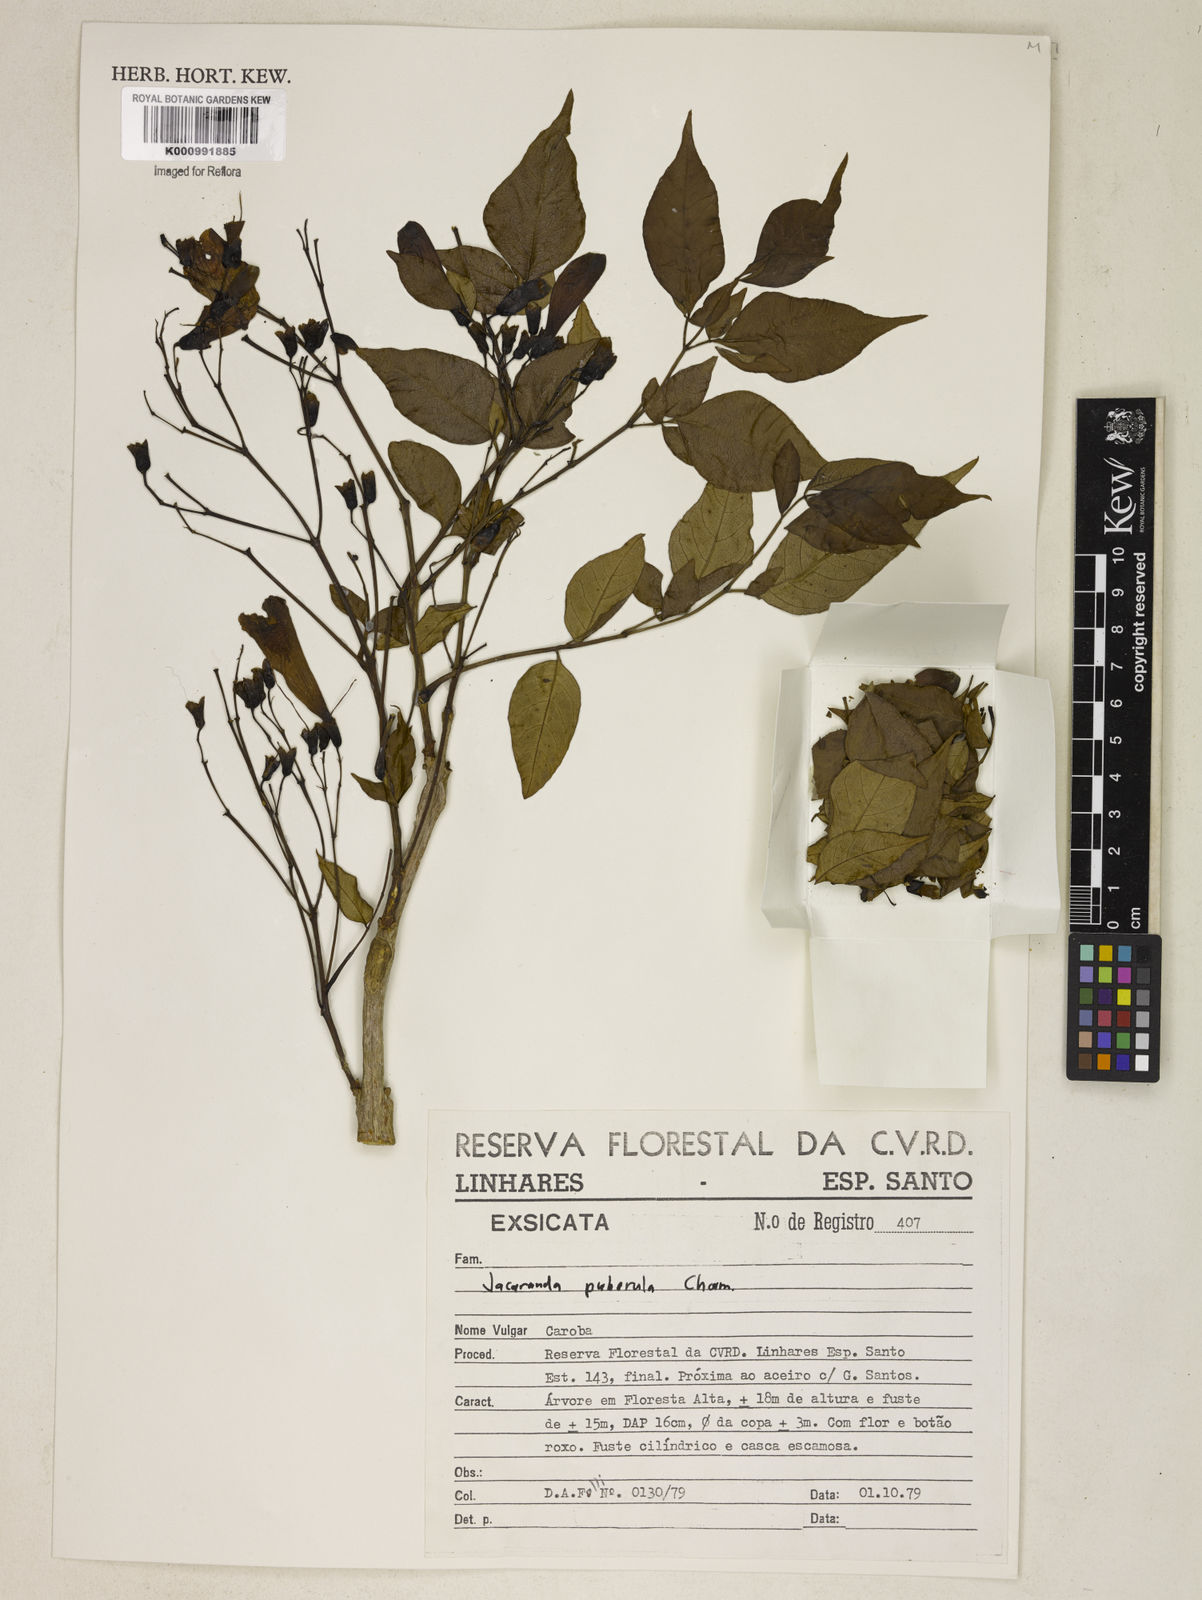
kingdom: Plantae
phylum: Tracheophyta
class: Magnoliopsida
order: Lamiales
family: Bignoniaceae
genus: Jacaranda
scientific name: Jacaranda
